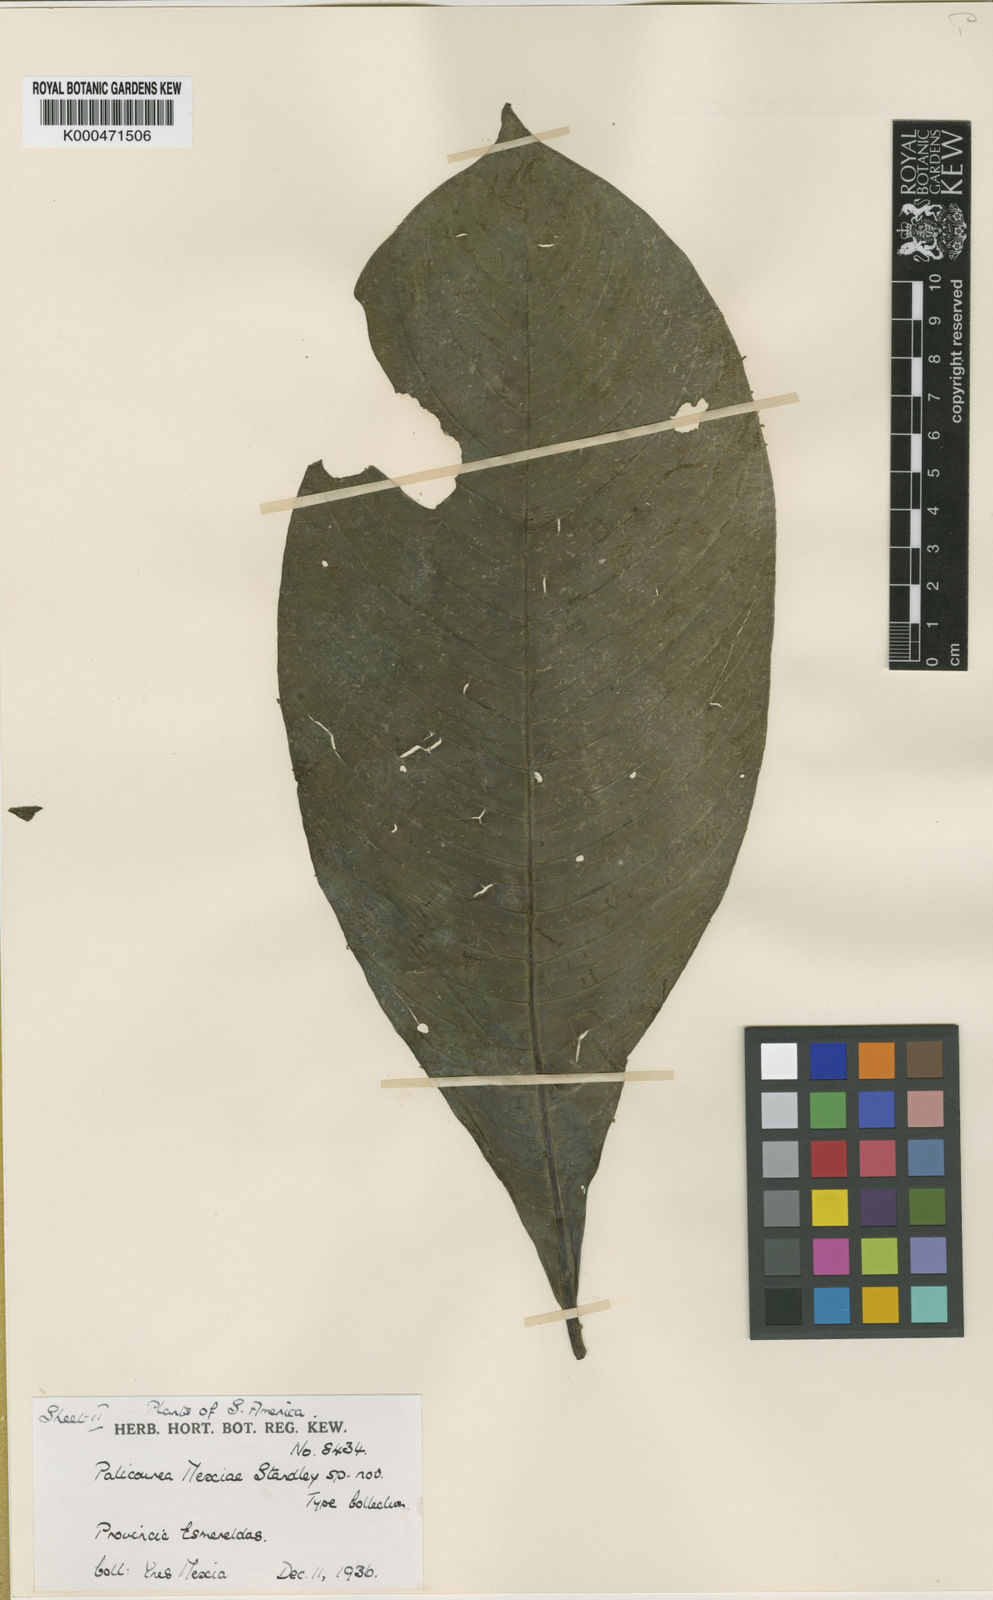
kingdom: Plantae
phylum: Tracheophyta
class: Magnoliopsida
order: Gentianales
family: Rubiaceae
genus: Ditrichanthus
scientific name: Ditrichanthus seemannii
